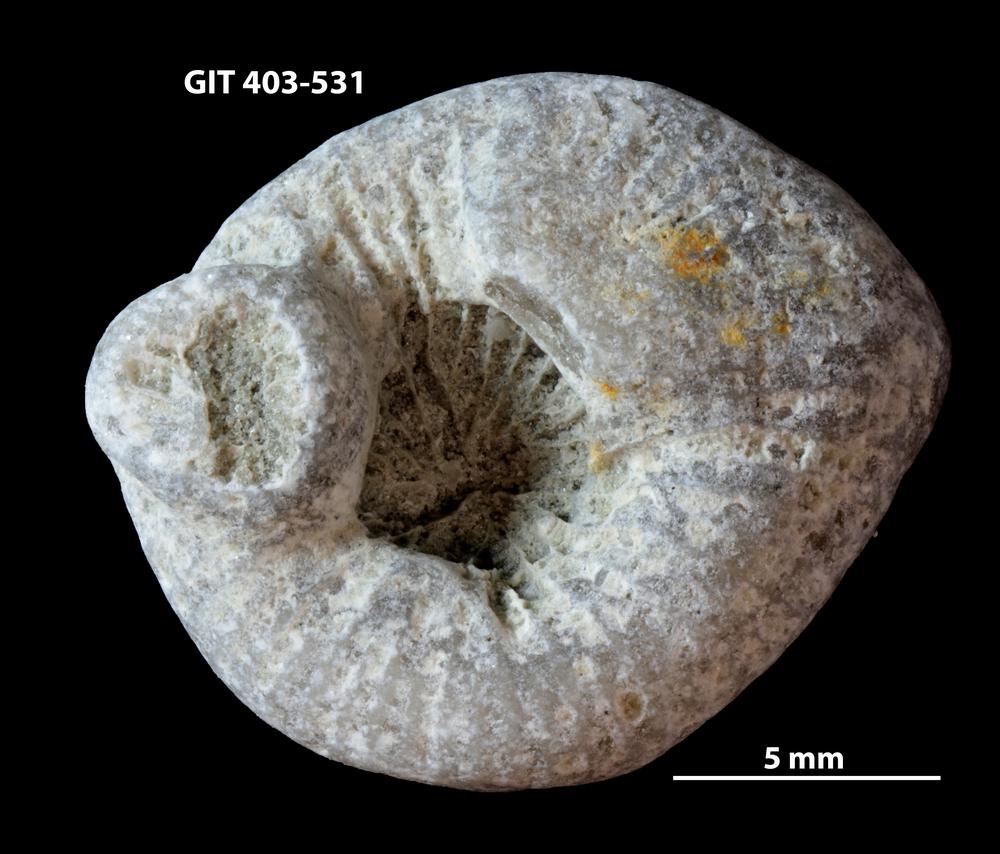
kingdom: Animalia
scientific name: Animalia
